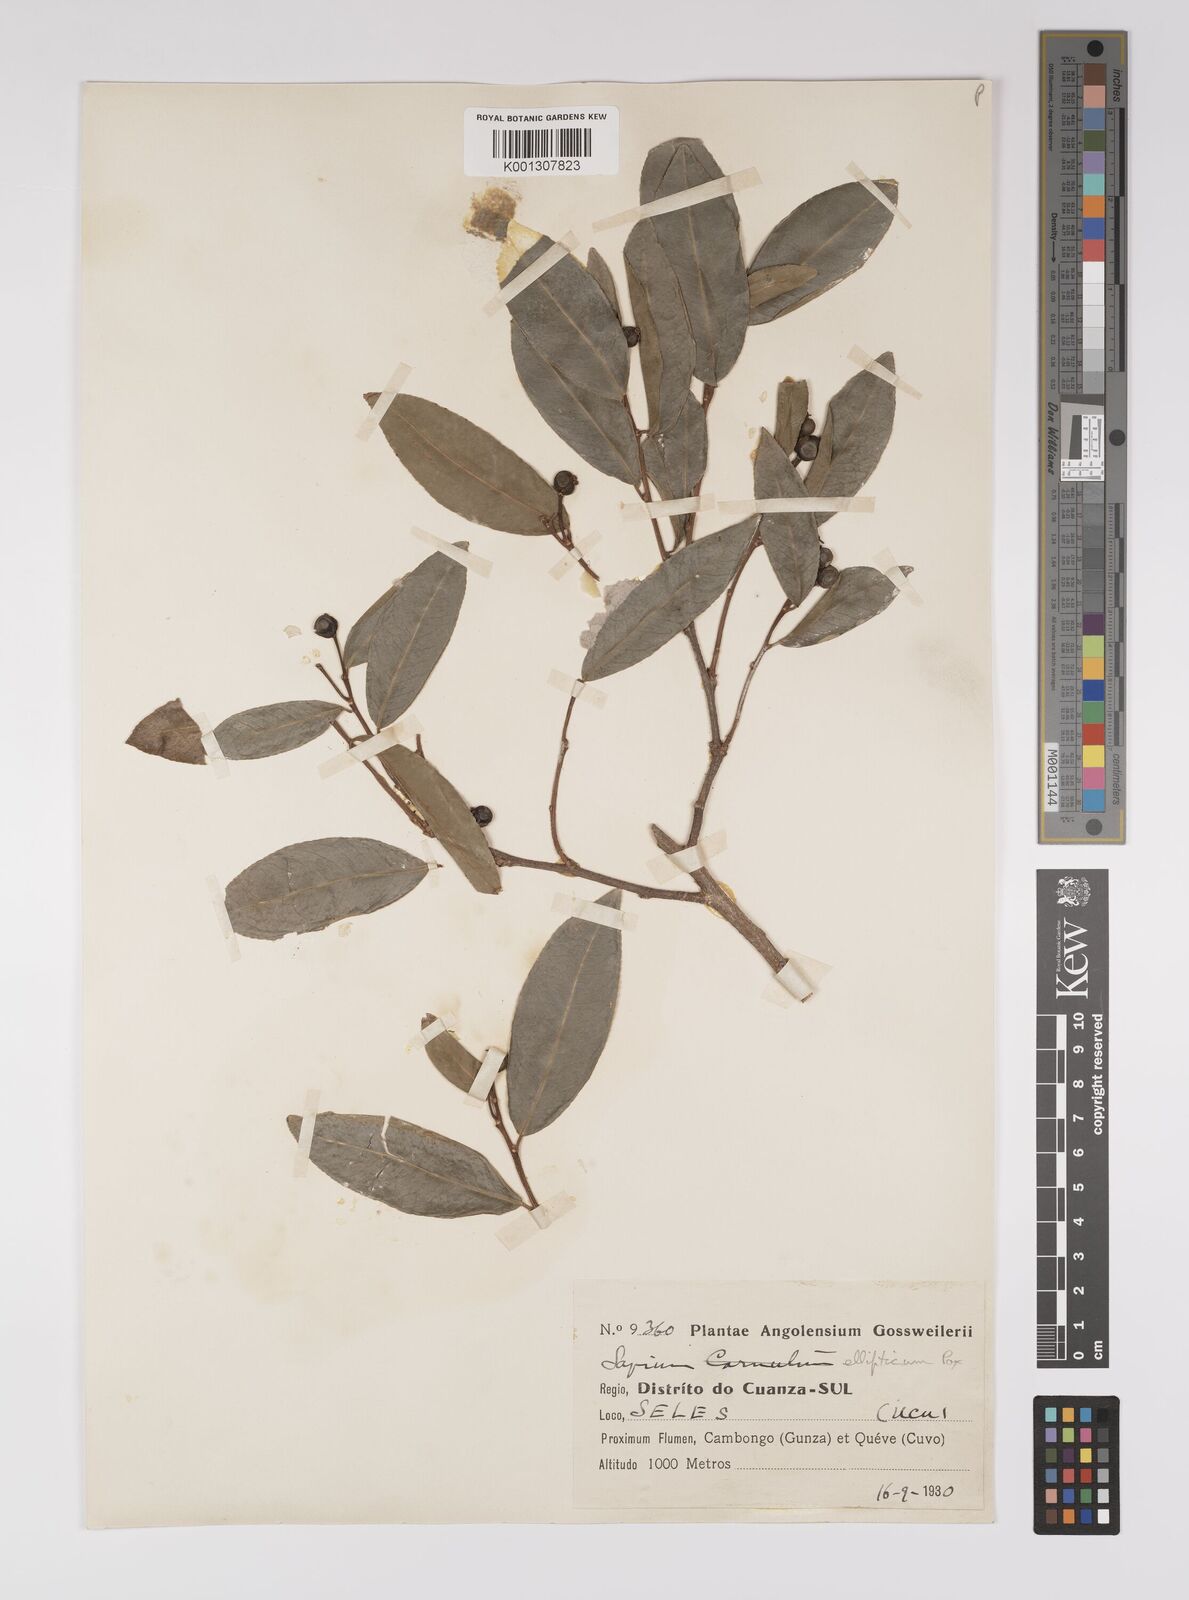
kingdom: Plantae
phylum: Tracheophyta
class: Magnoliopsida
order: Malpighiales
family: Euphorbiaceae
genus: Shirakiopsis
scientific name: Shirakiopsis elliptica
